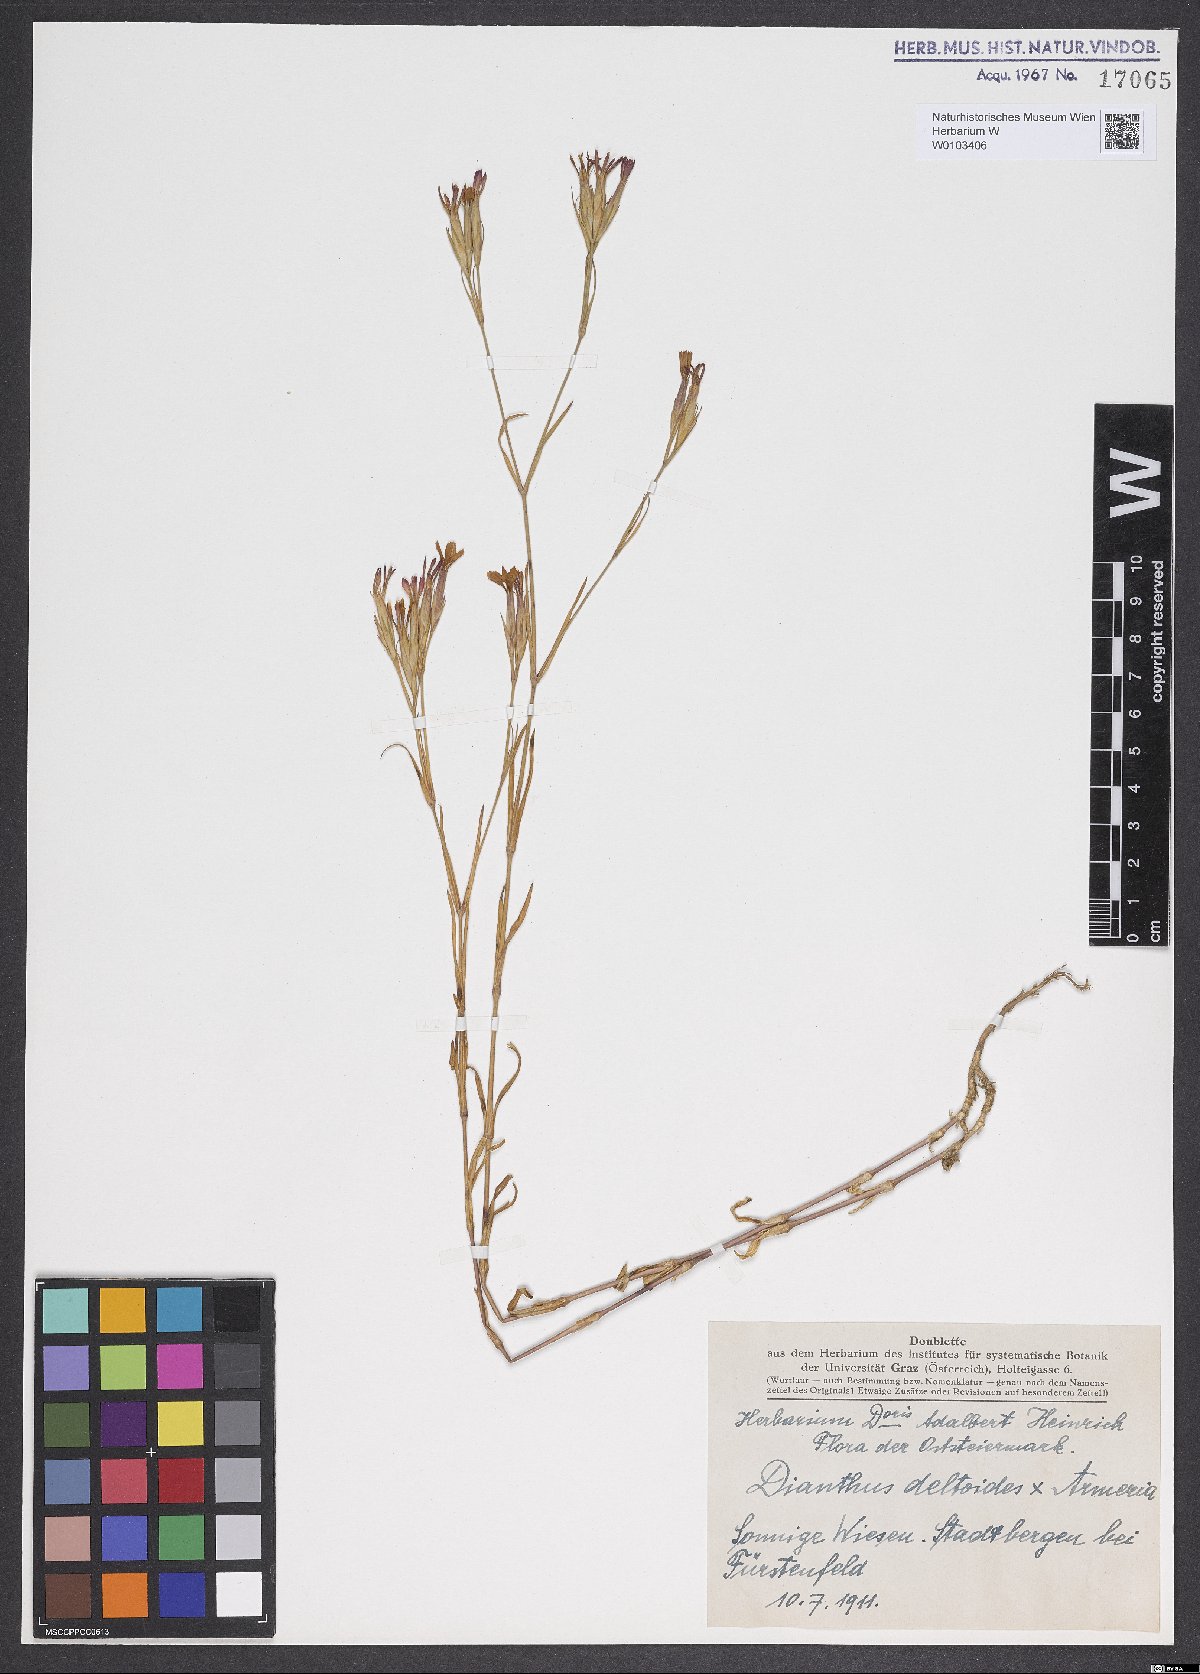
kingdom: Plantae
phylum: Tracheophyta
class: Magnoliopsida
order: Caryophyllales
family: Caryophyllaceae
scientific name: Caryophyllaceae
